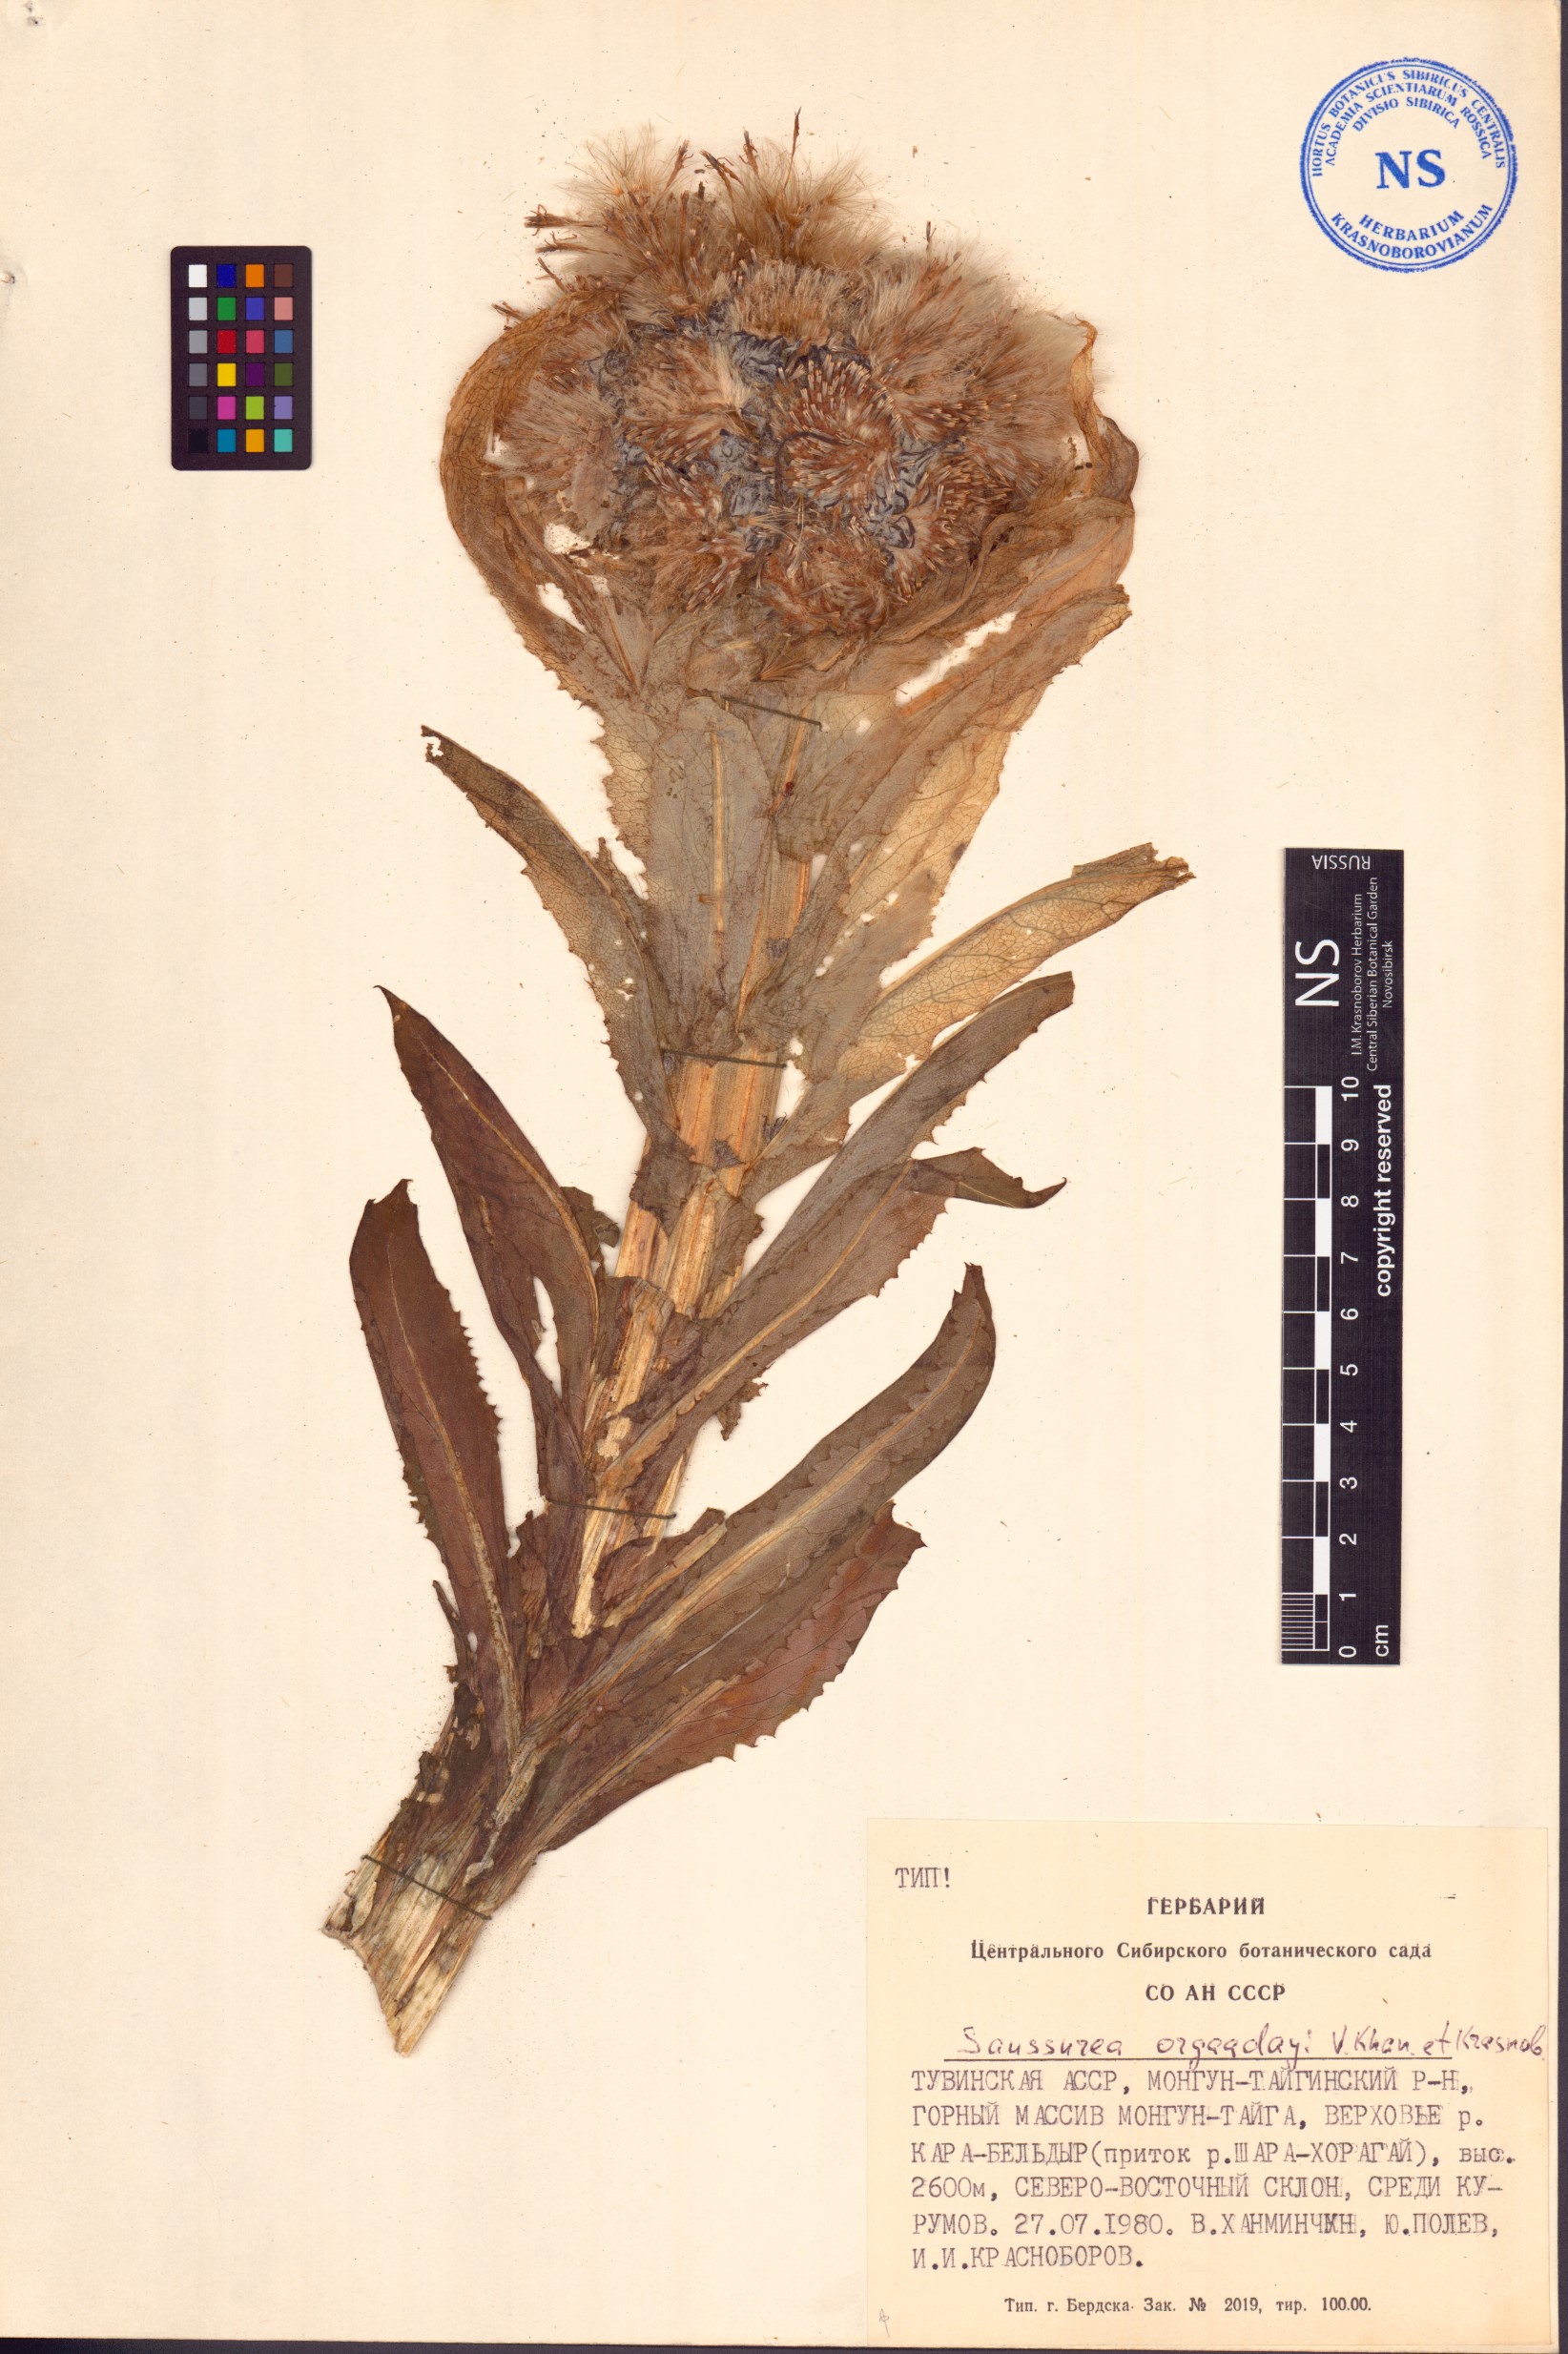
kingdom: Plantae
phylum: Tracheophyta
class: Magnoliopsida
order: Asterales
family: Asteraceae
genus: Saussurea
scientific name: Saussurea orgaadayi
